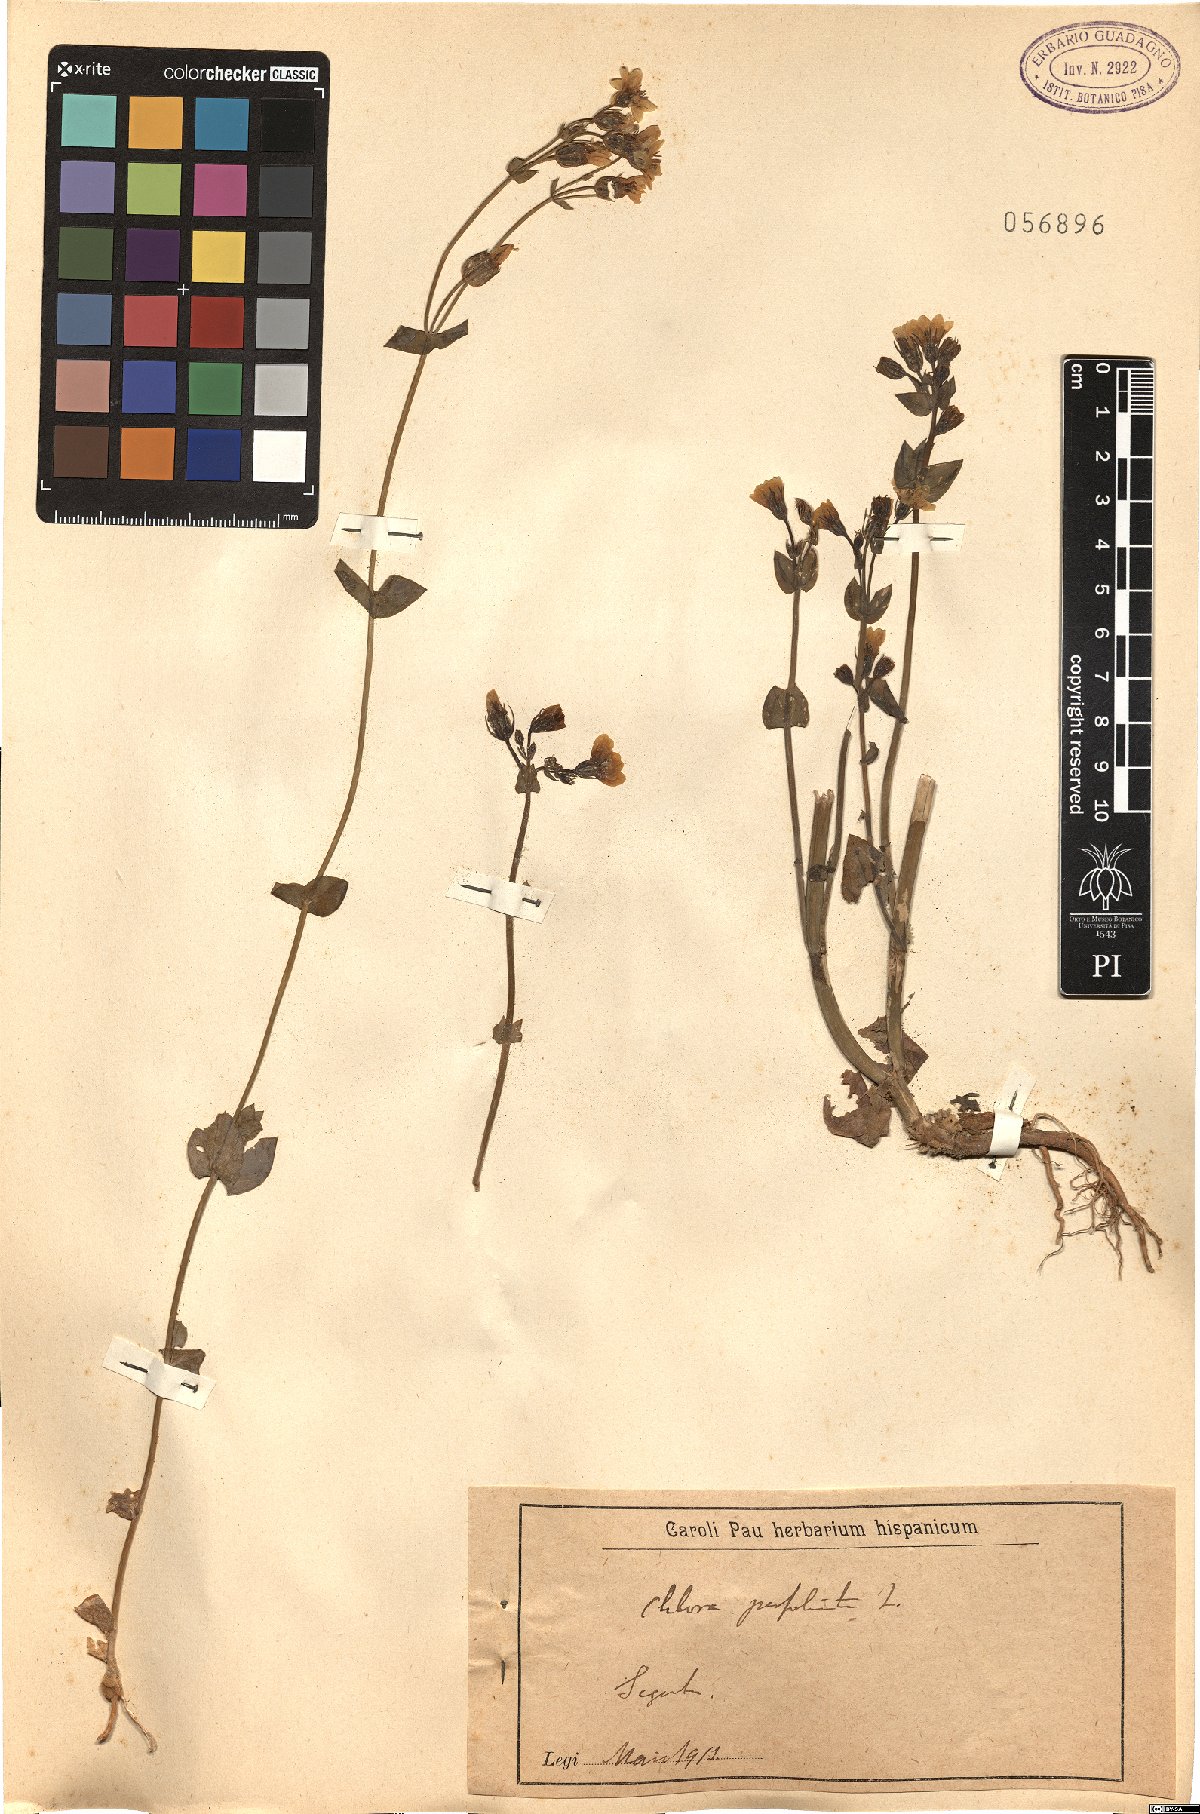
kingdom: Plantae
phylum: Tracheophyta
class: Magnoliopsida
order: Gentianales
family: Gentianaceae
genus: Blackstonia
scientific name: Blackstonia perfoliata
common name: Yellow-wort
